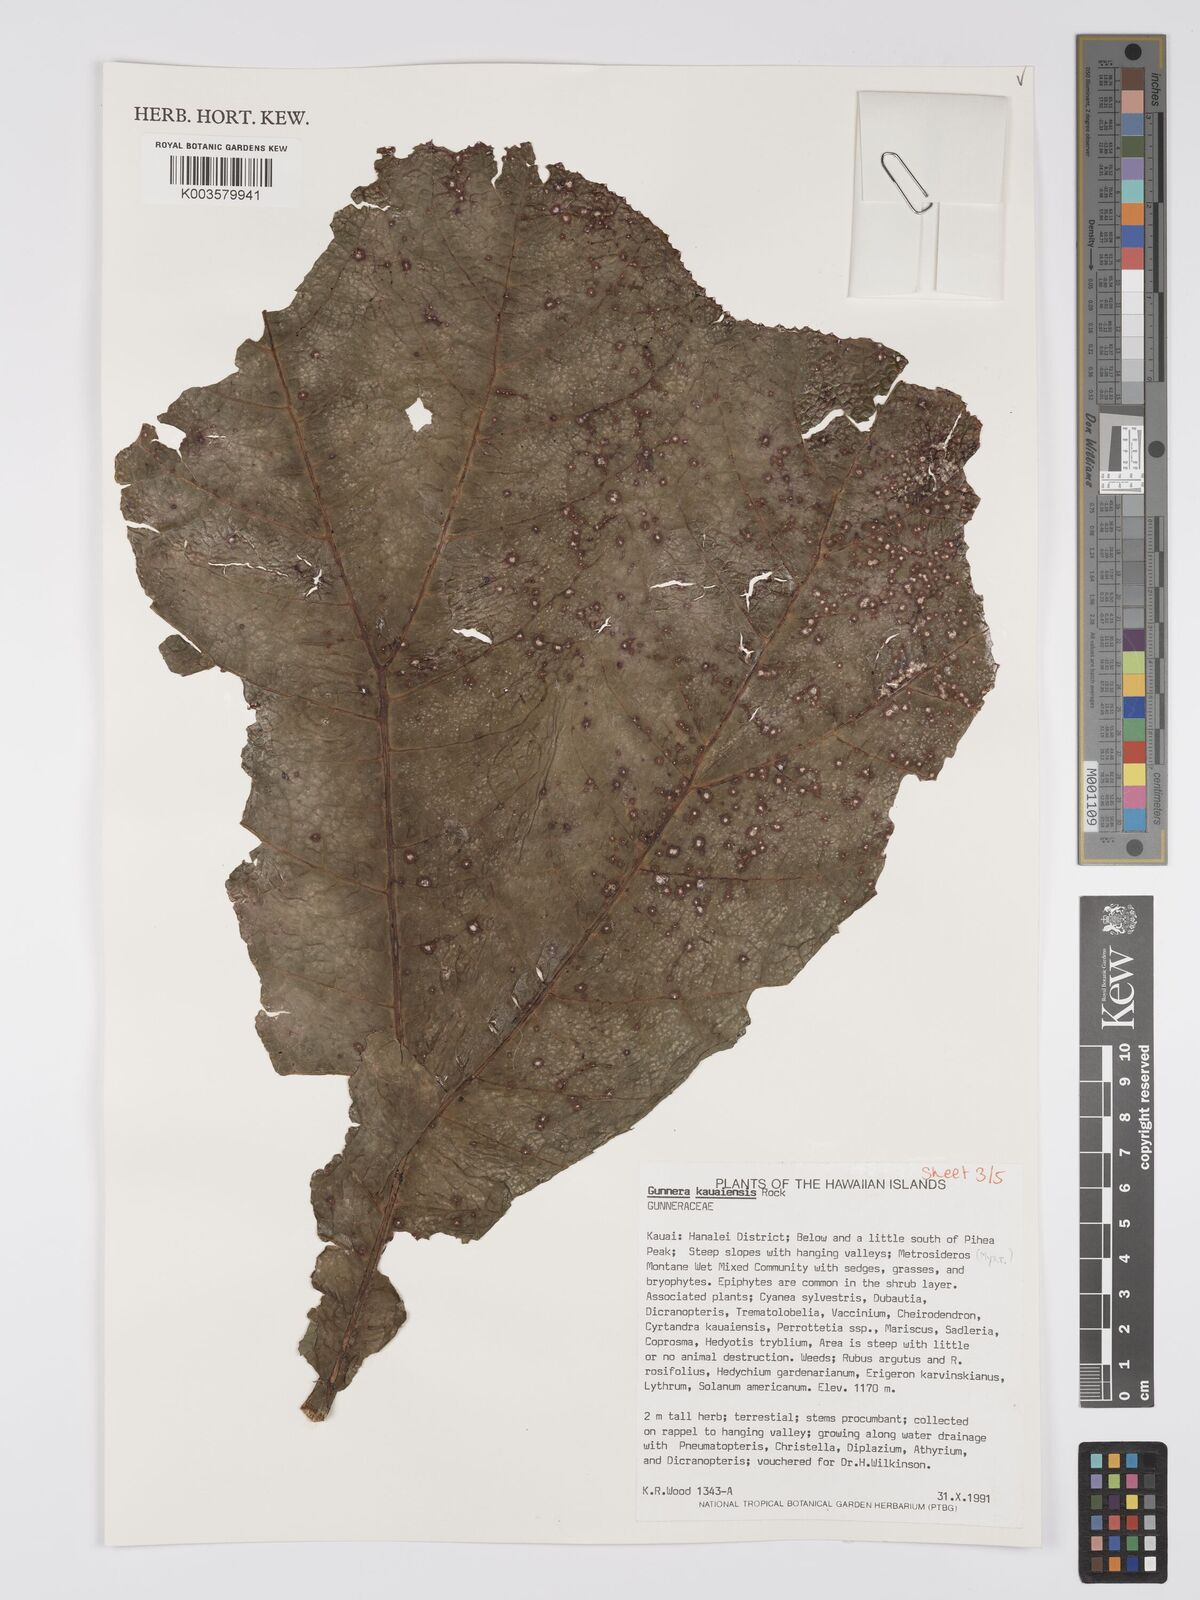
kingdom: Plantae
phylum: Tracheophyta
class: Magnoliopsida
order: Gunnerales
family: Gunneraceae
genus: Gunnera
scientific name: Gunnera kauaiensis
